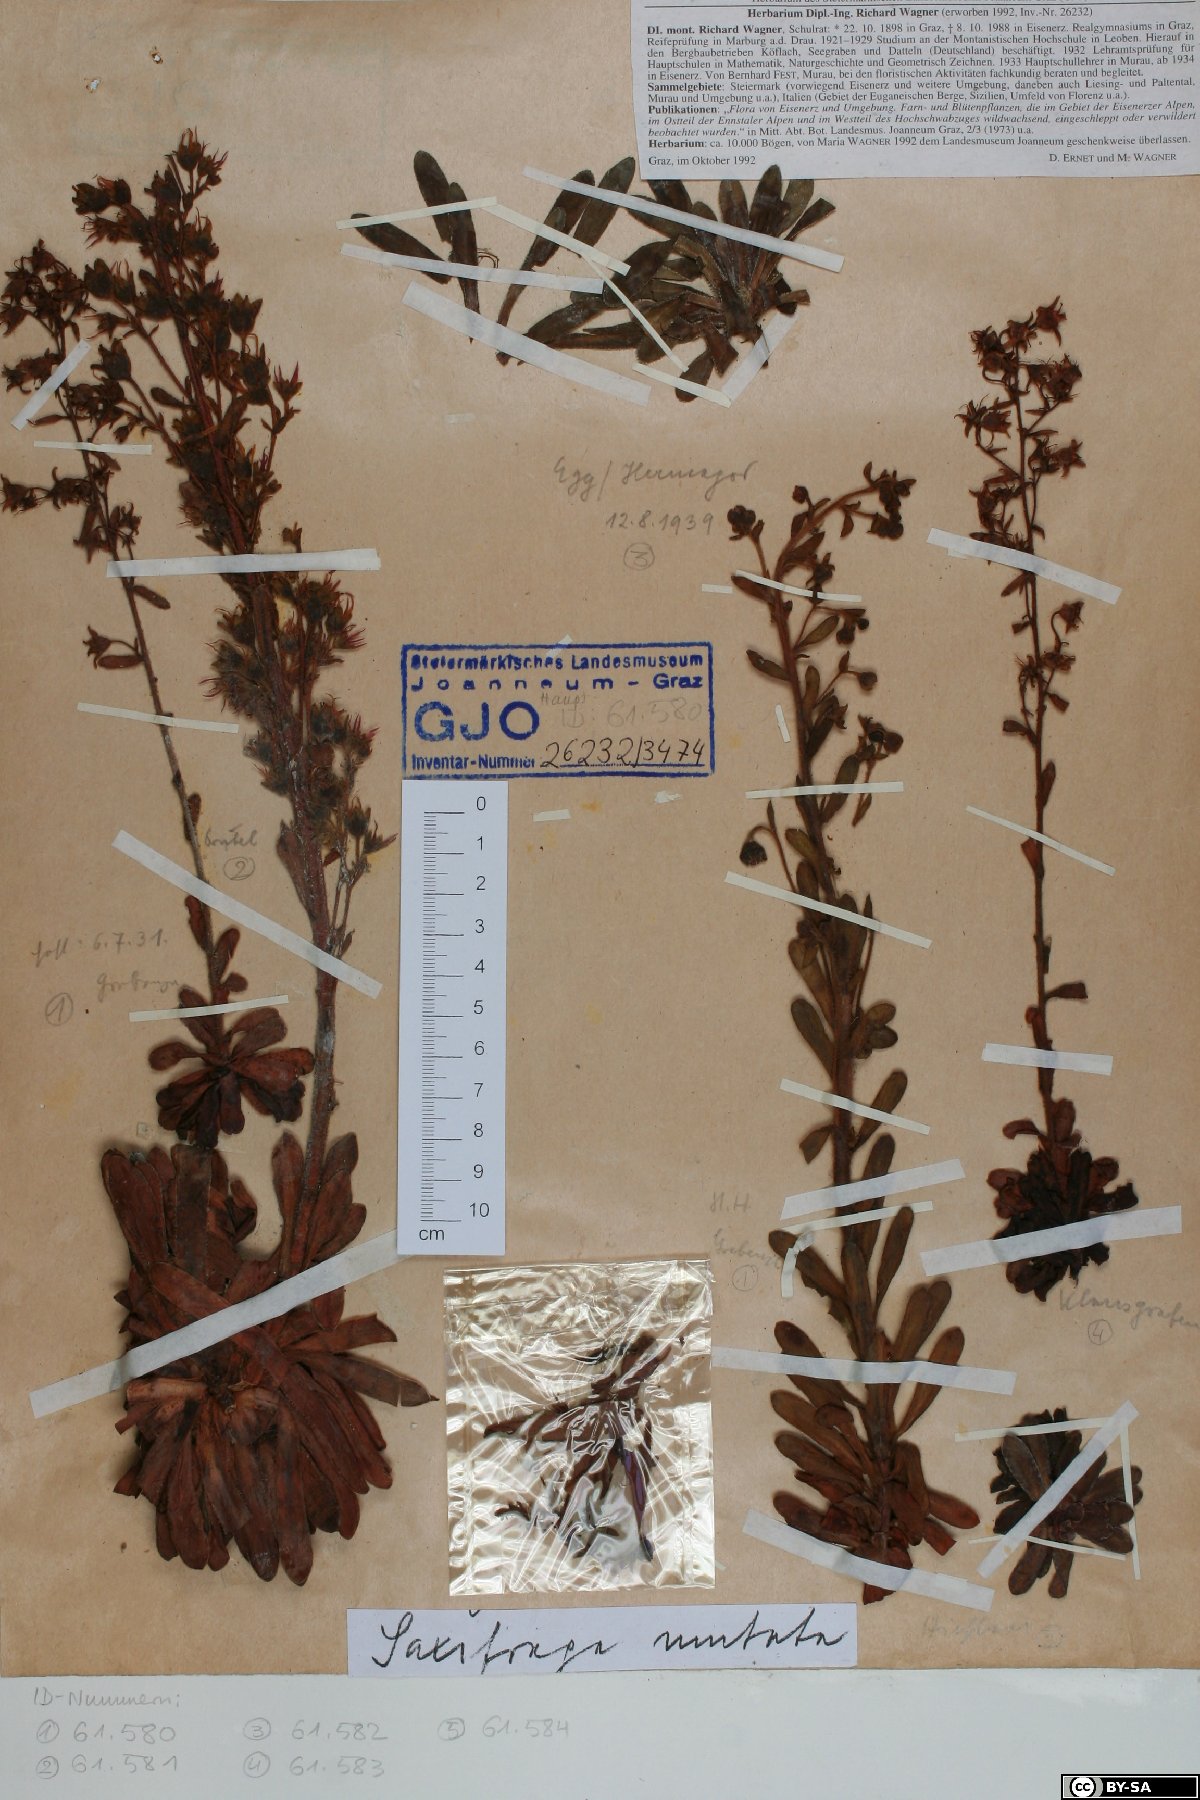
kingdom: Plantae
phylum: Tracheophyta
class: Magnoliopsida
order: Saxifragales
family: Saxifragaceae
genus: Saxifraga
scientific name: Saxifraga mutata
